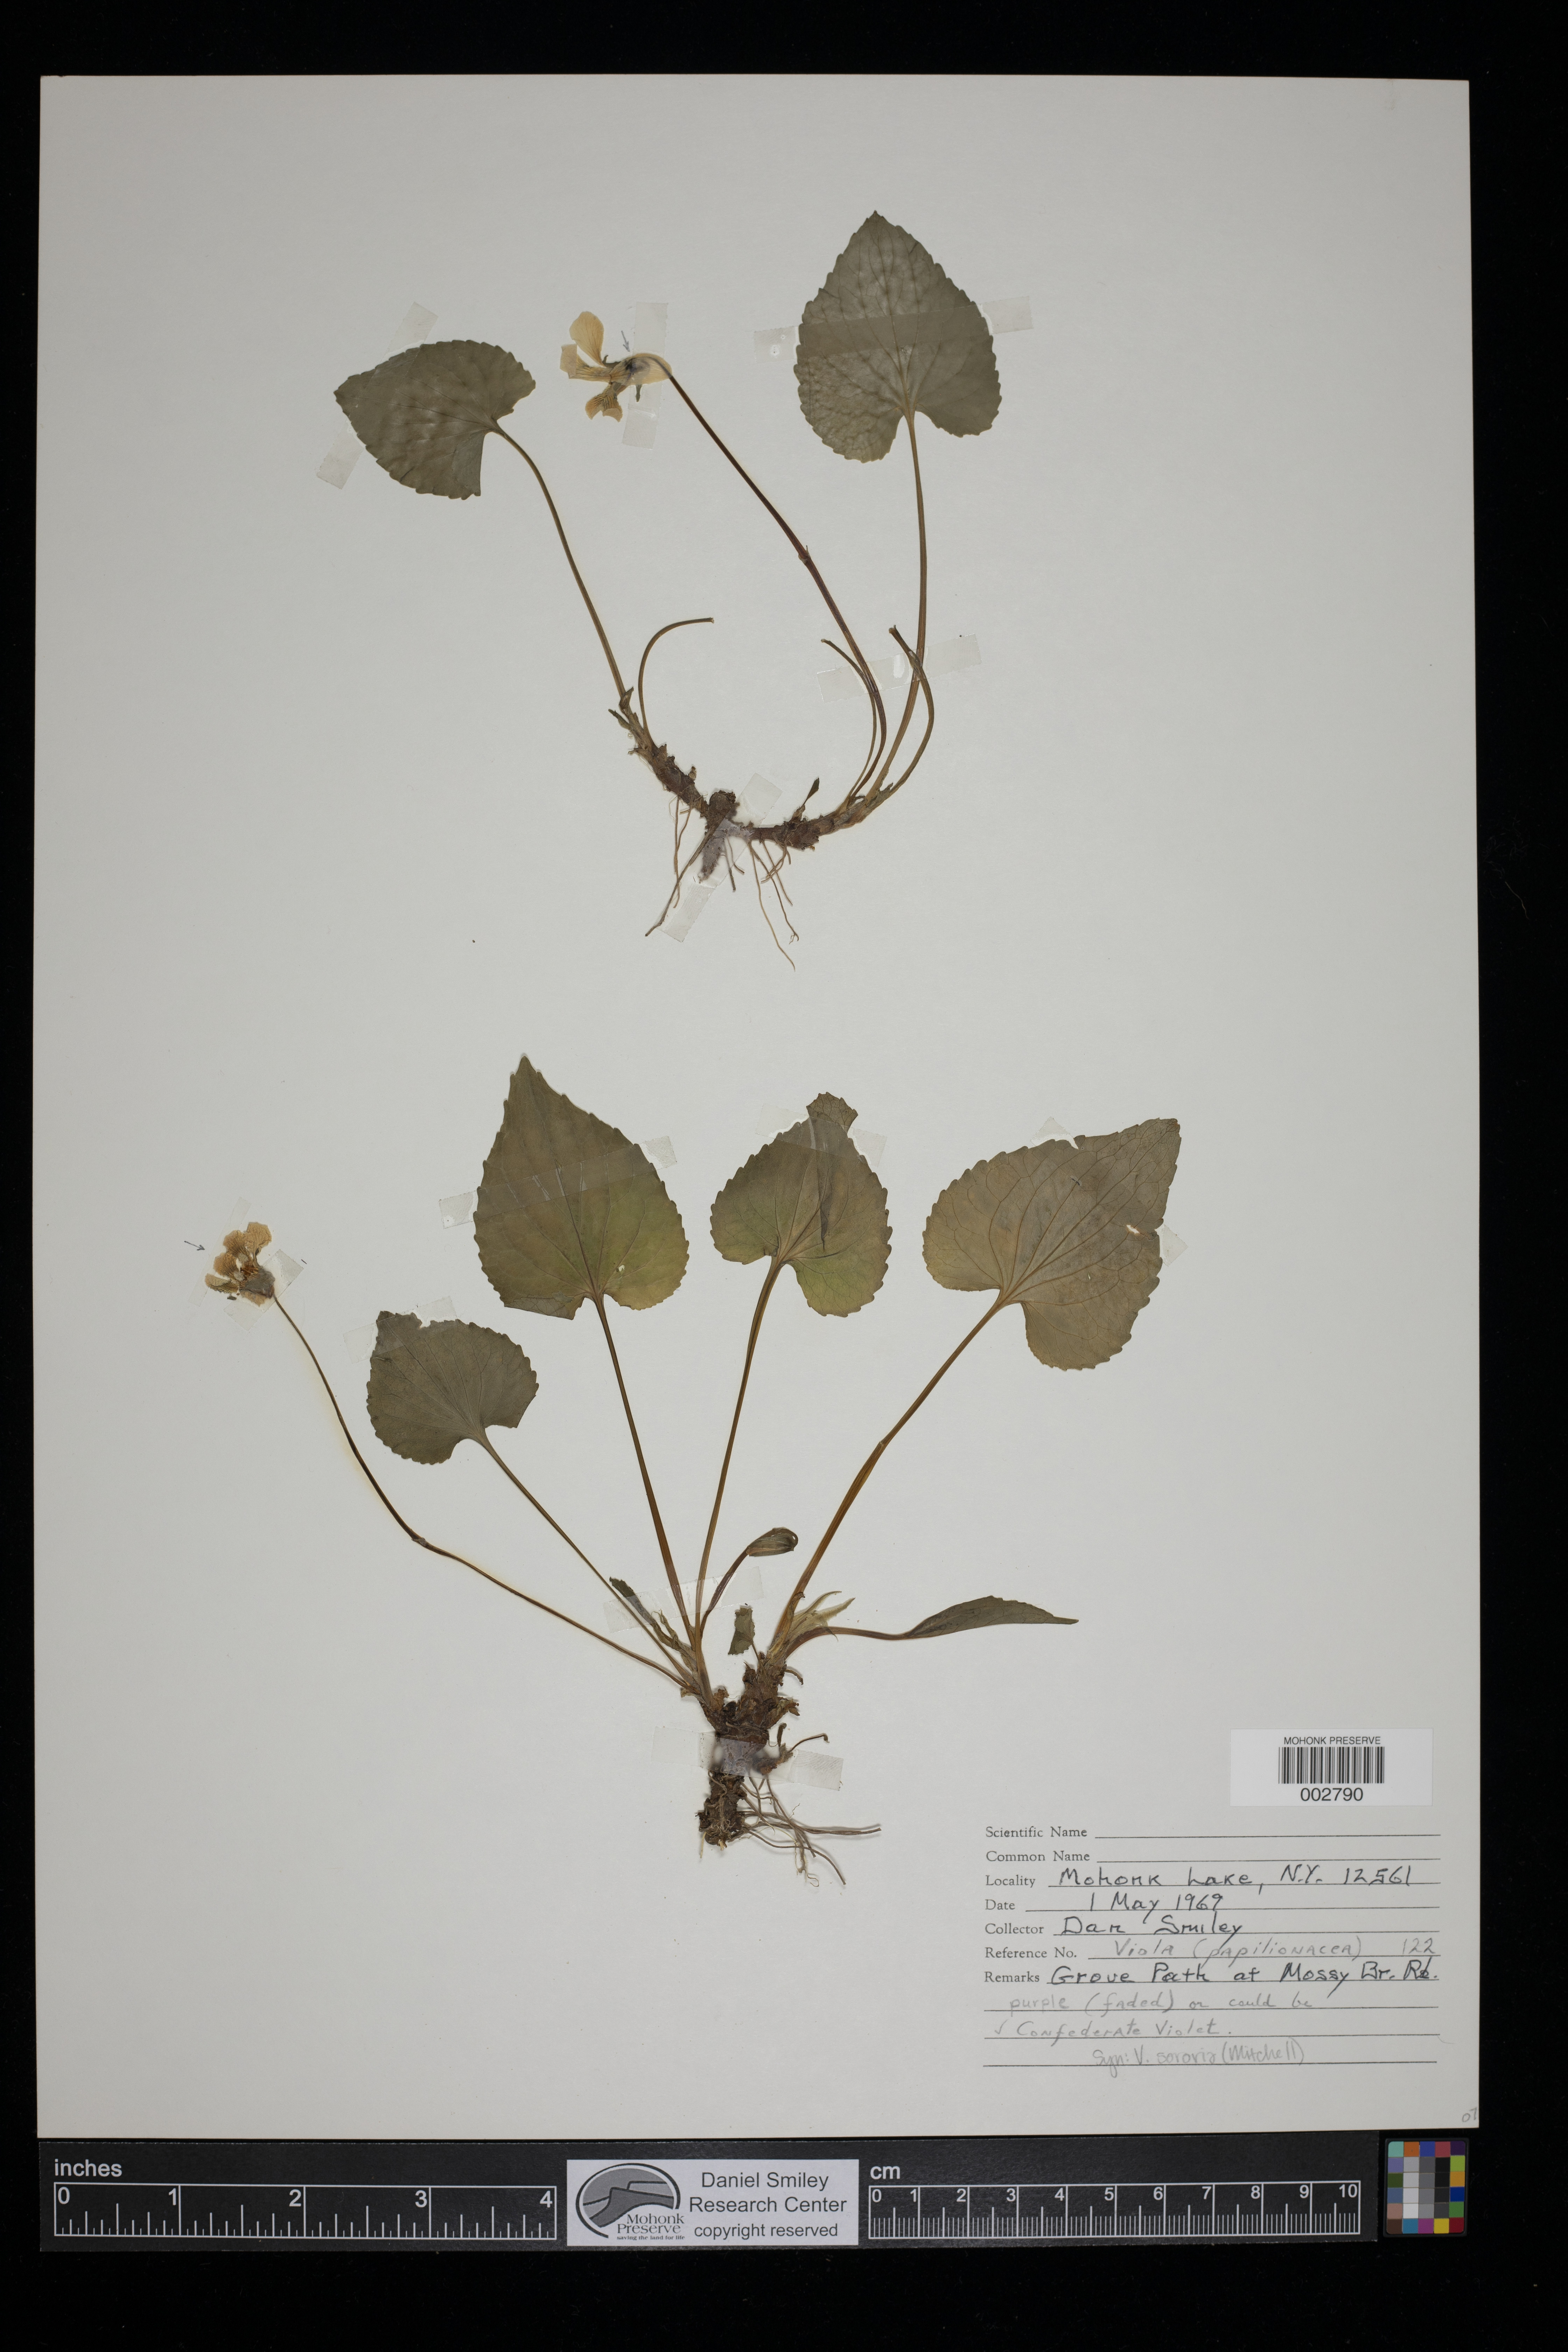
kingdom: Plantae
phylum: Tracheophyta
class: Magnoliopsida
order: Malpighiales
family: Violaceae
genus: Viola
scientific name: Viola sororia
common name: Dooryard violet
